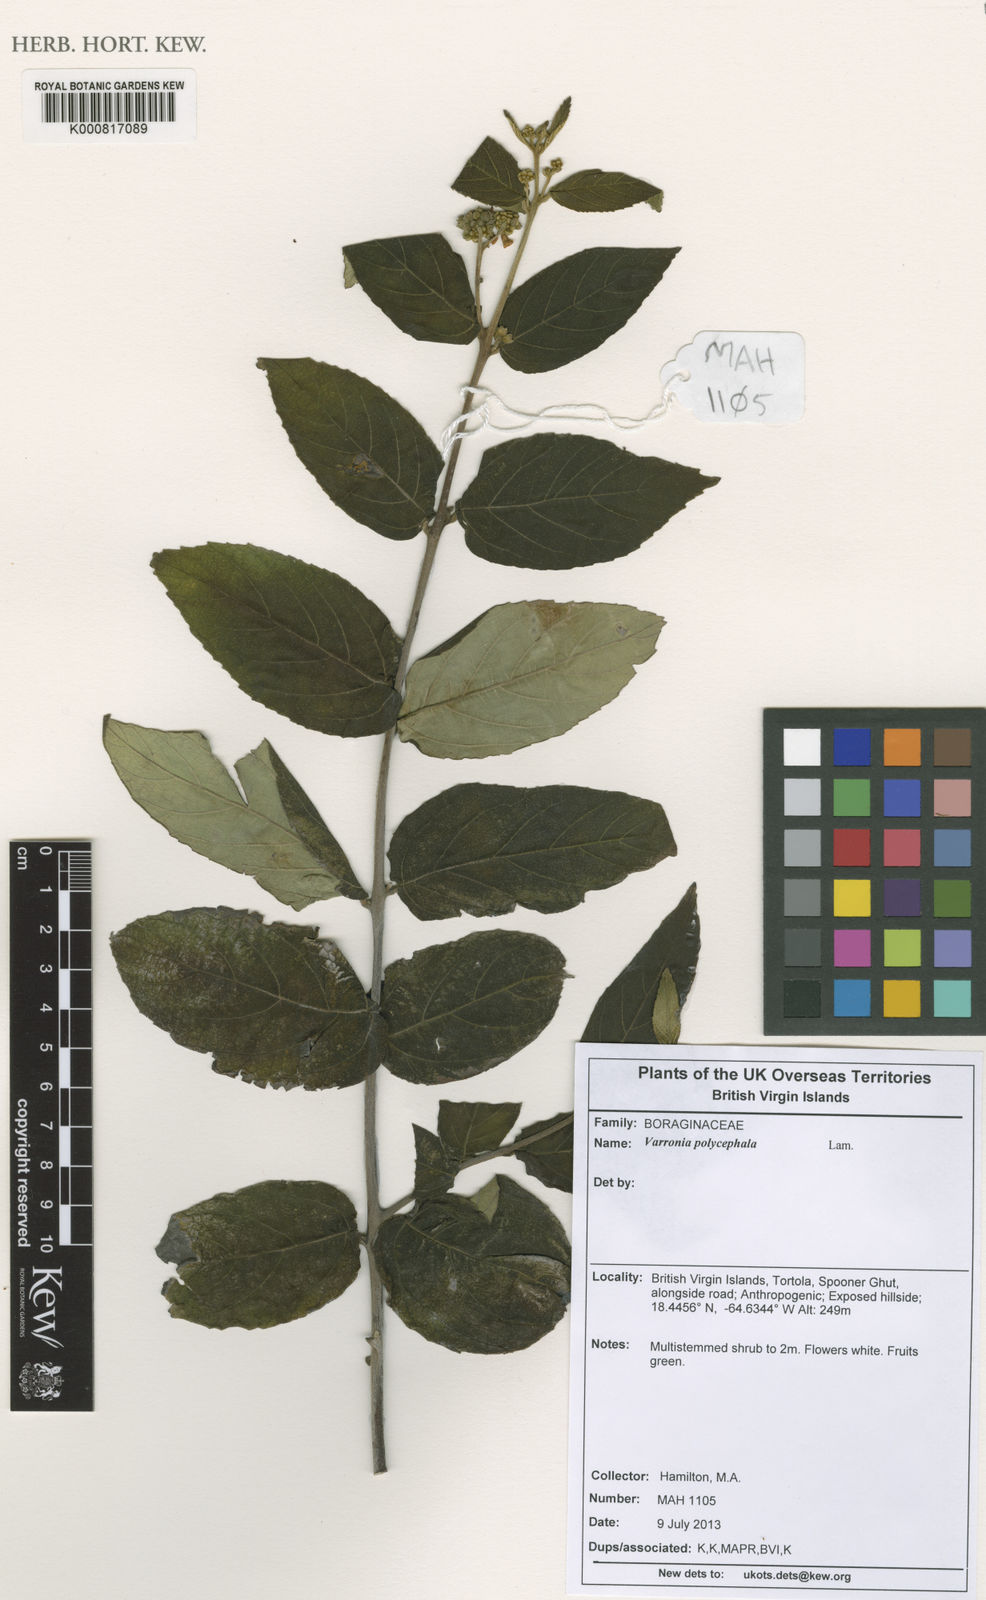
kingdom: Plantae
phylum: Tracheophyta
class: Magnoliopsida
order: Boraginales
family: Cordiaceae
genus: Varronia
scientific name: Varronia polycephala
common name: Black-sage
